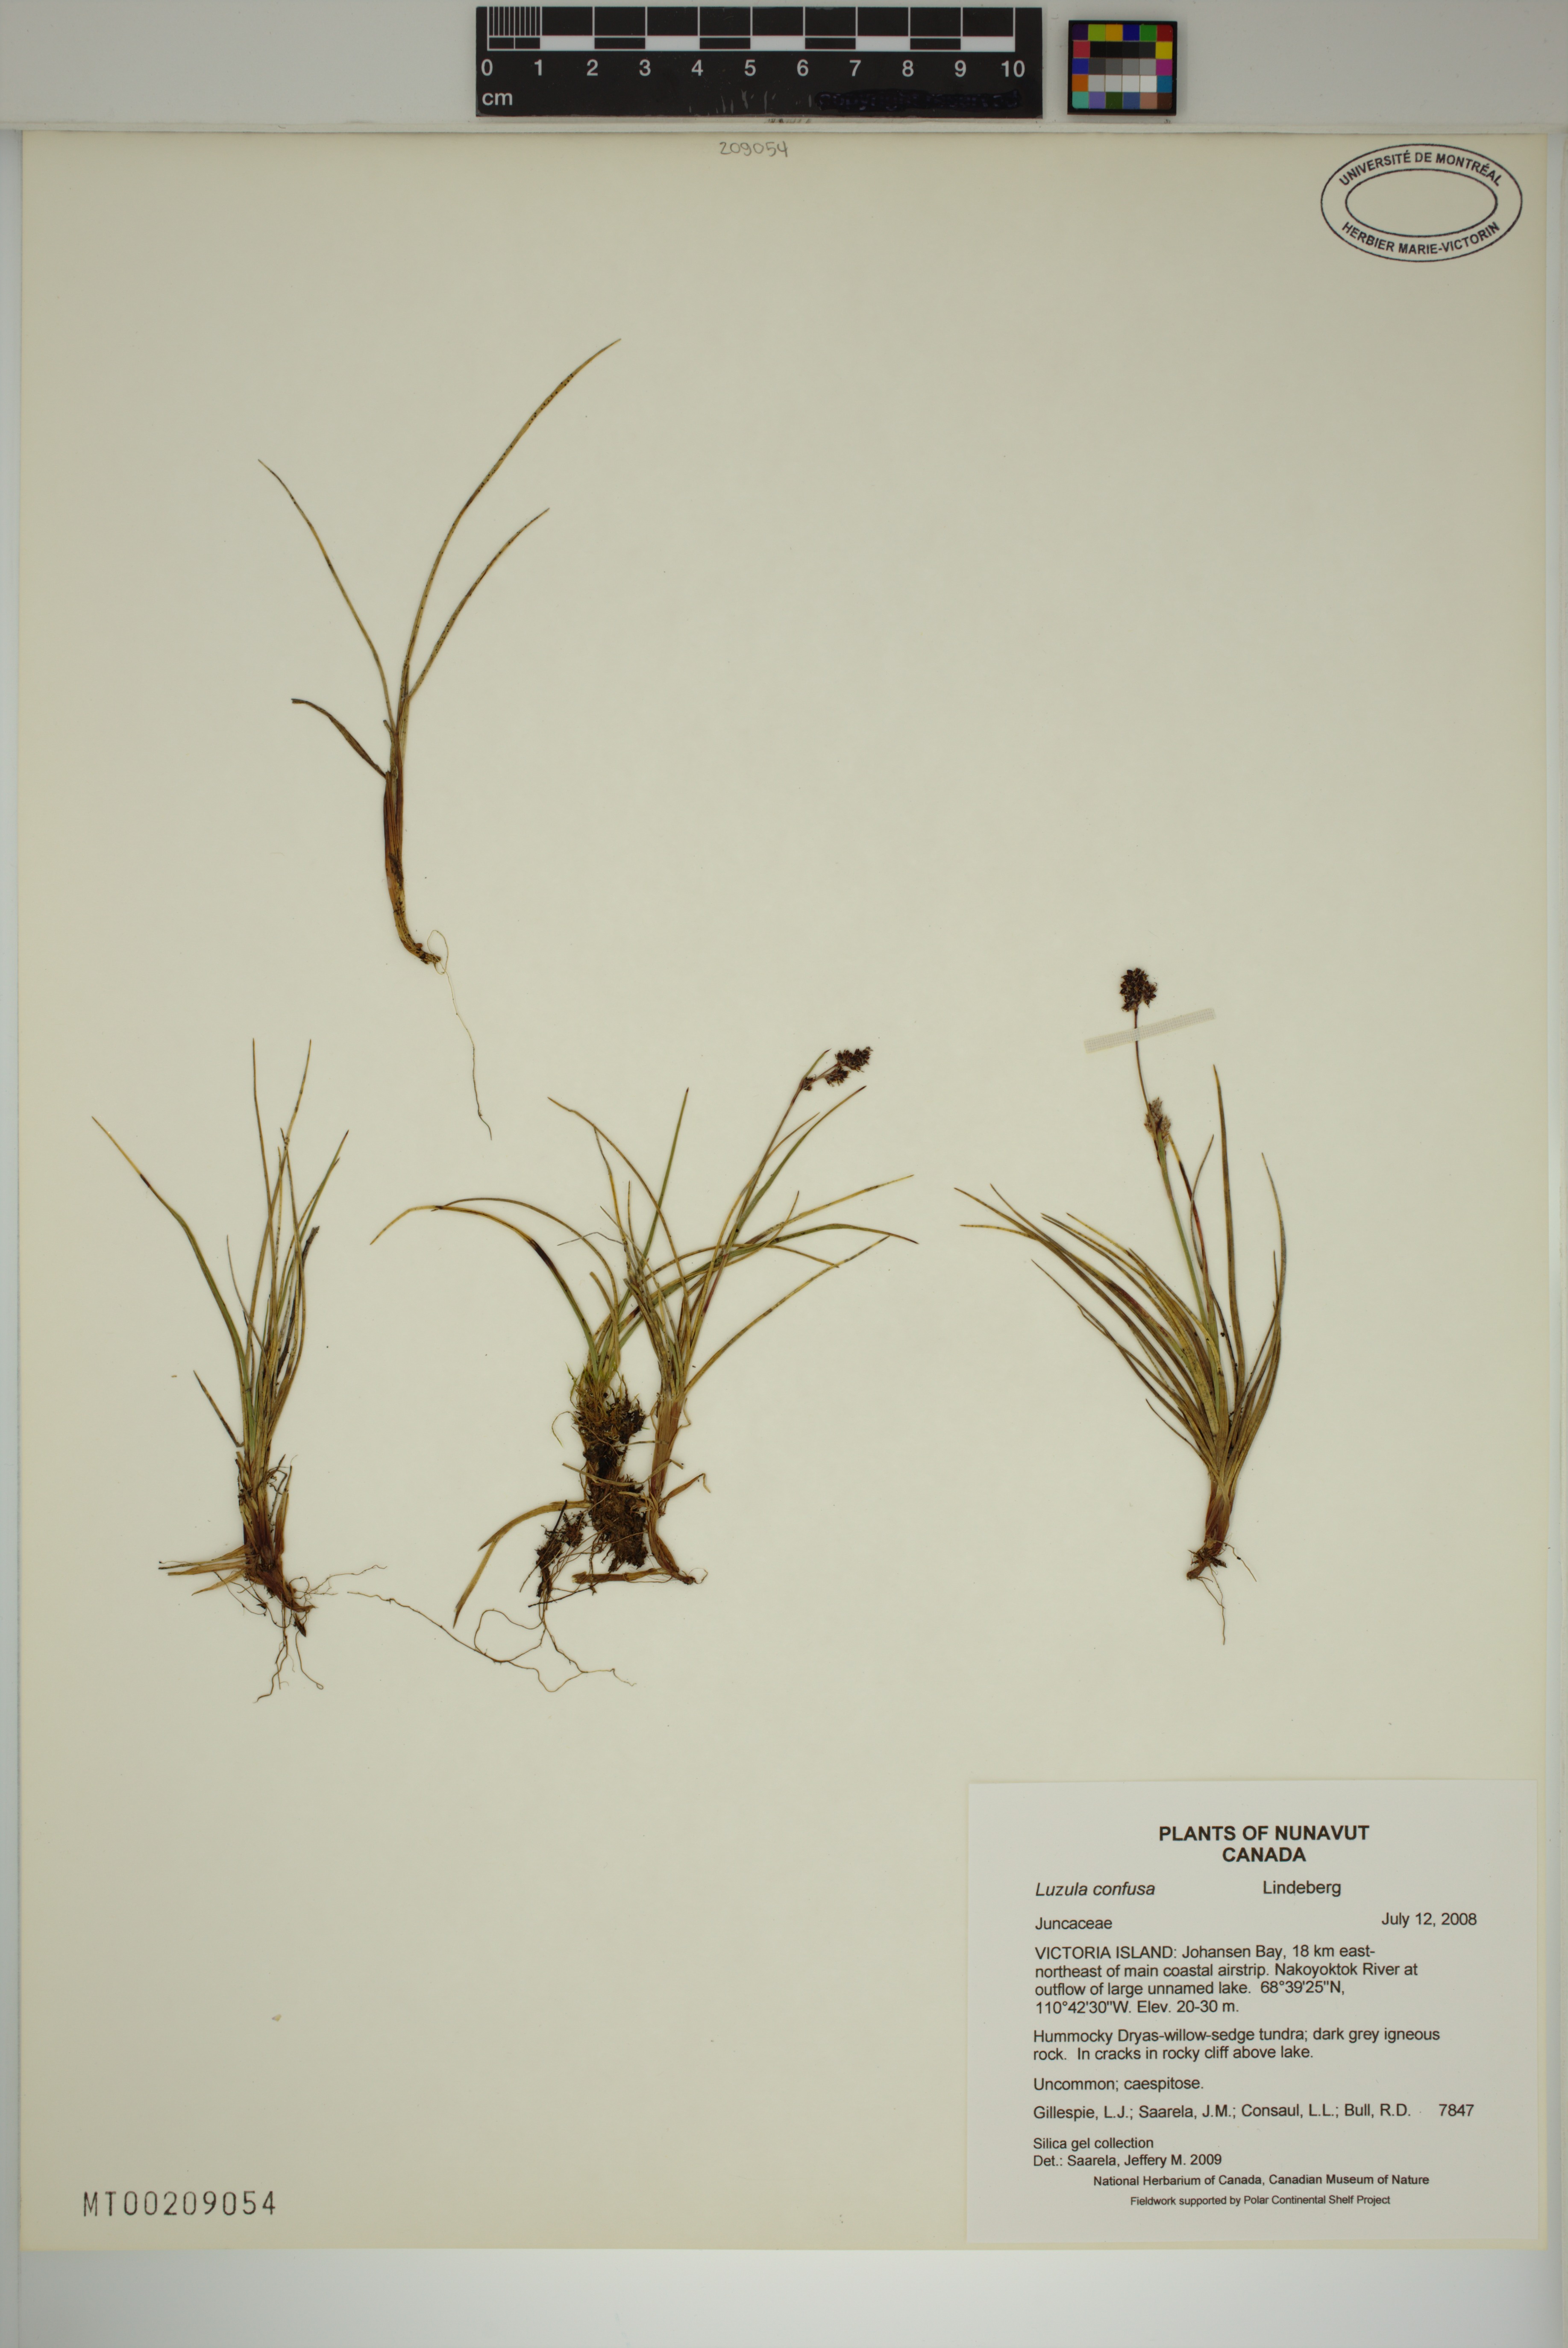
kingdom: Plantae
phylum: Tracheophyta
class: Liliopsida
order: Poales
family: Juncaceae
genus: Luzula
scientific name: Luzula confusa
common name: Northern wood rush
